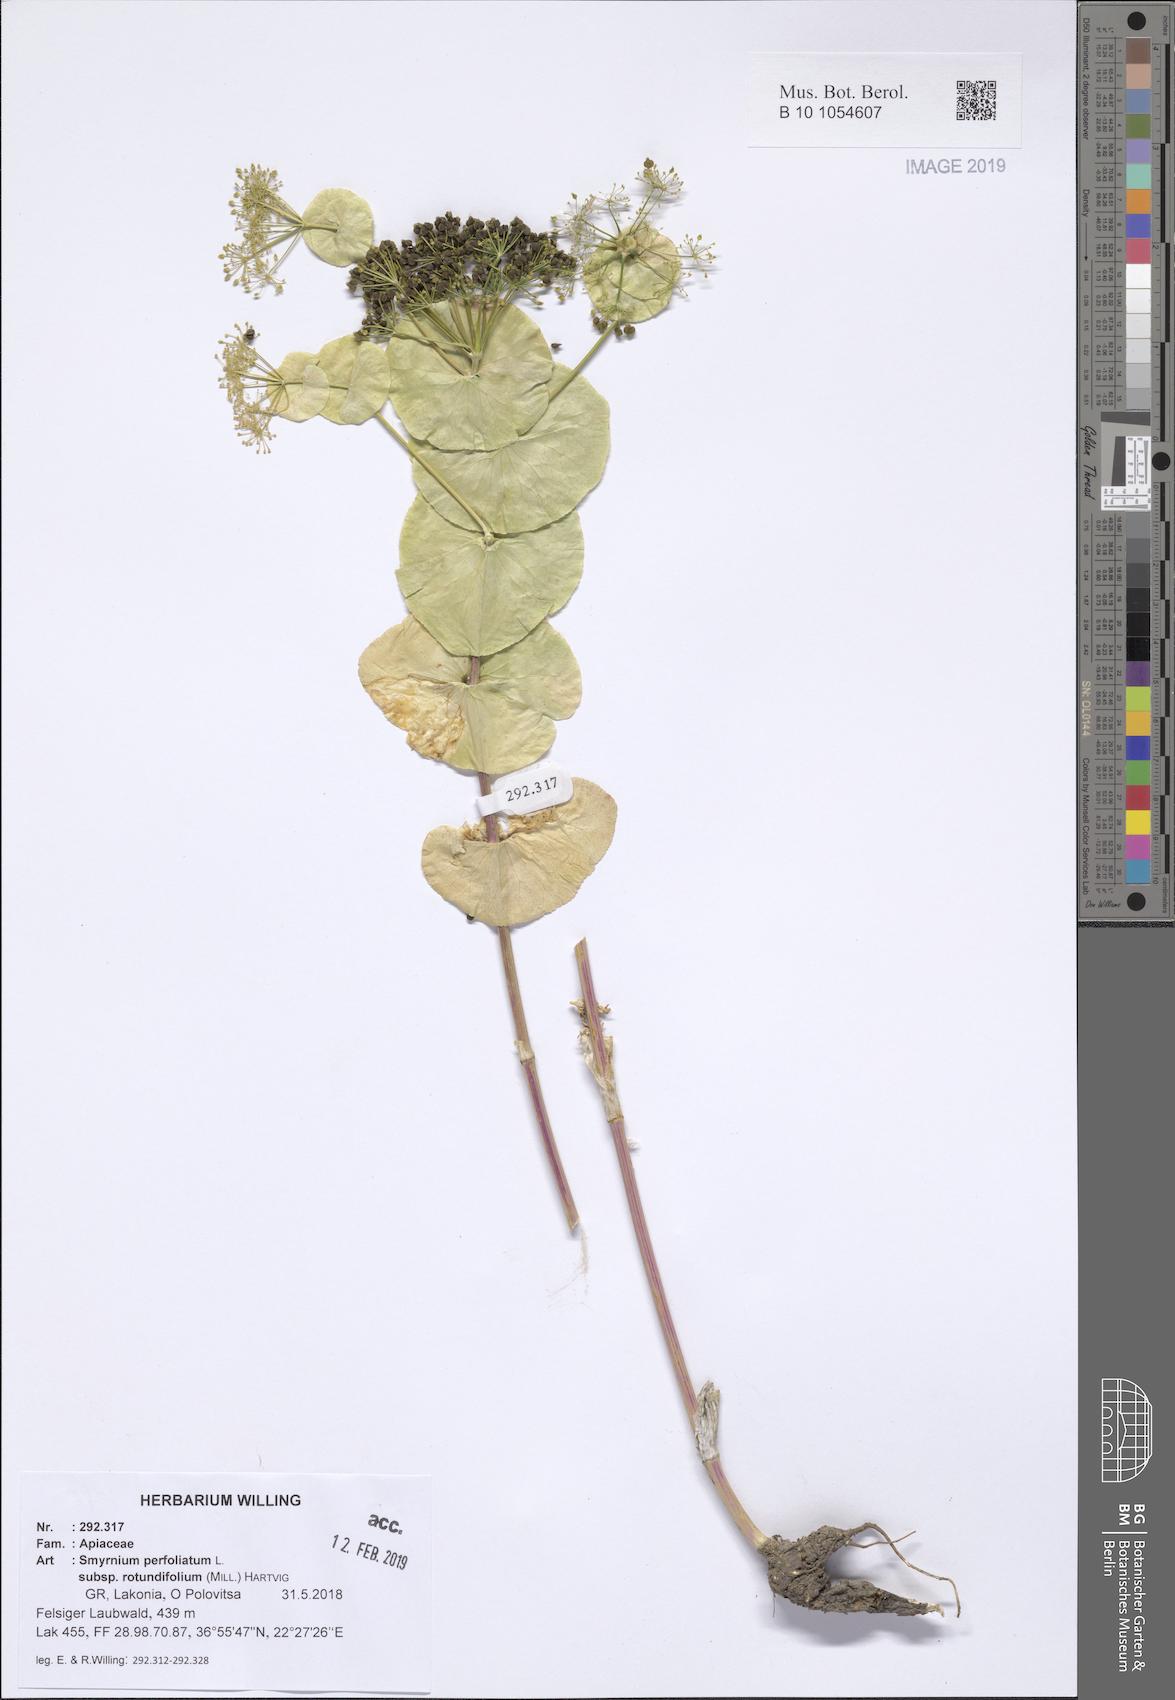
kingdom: Plantae
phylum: Tracheophyta
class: Magnoliopsida
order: Apiales
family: Apiaceae
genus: Smyrnium
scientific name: Smyrnium perfoliatum
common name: Perfoliate alexanders
